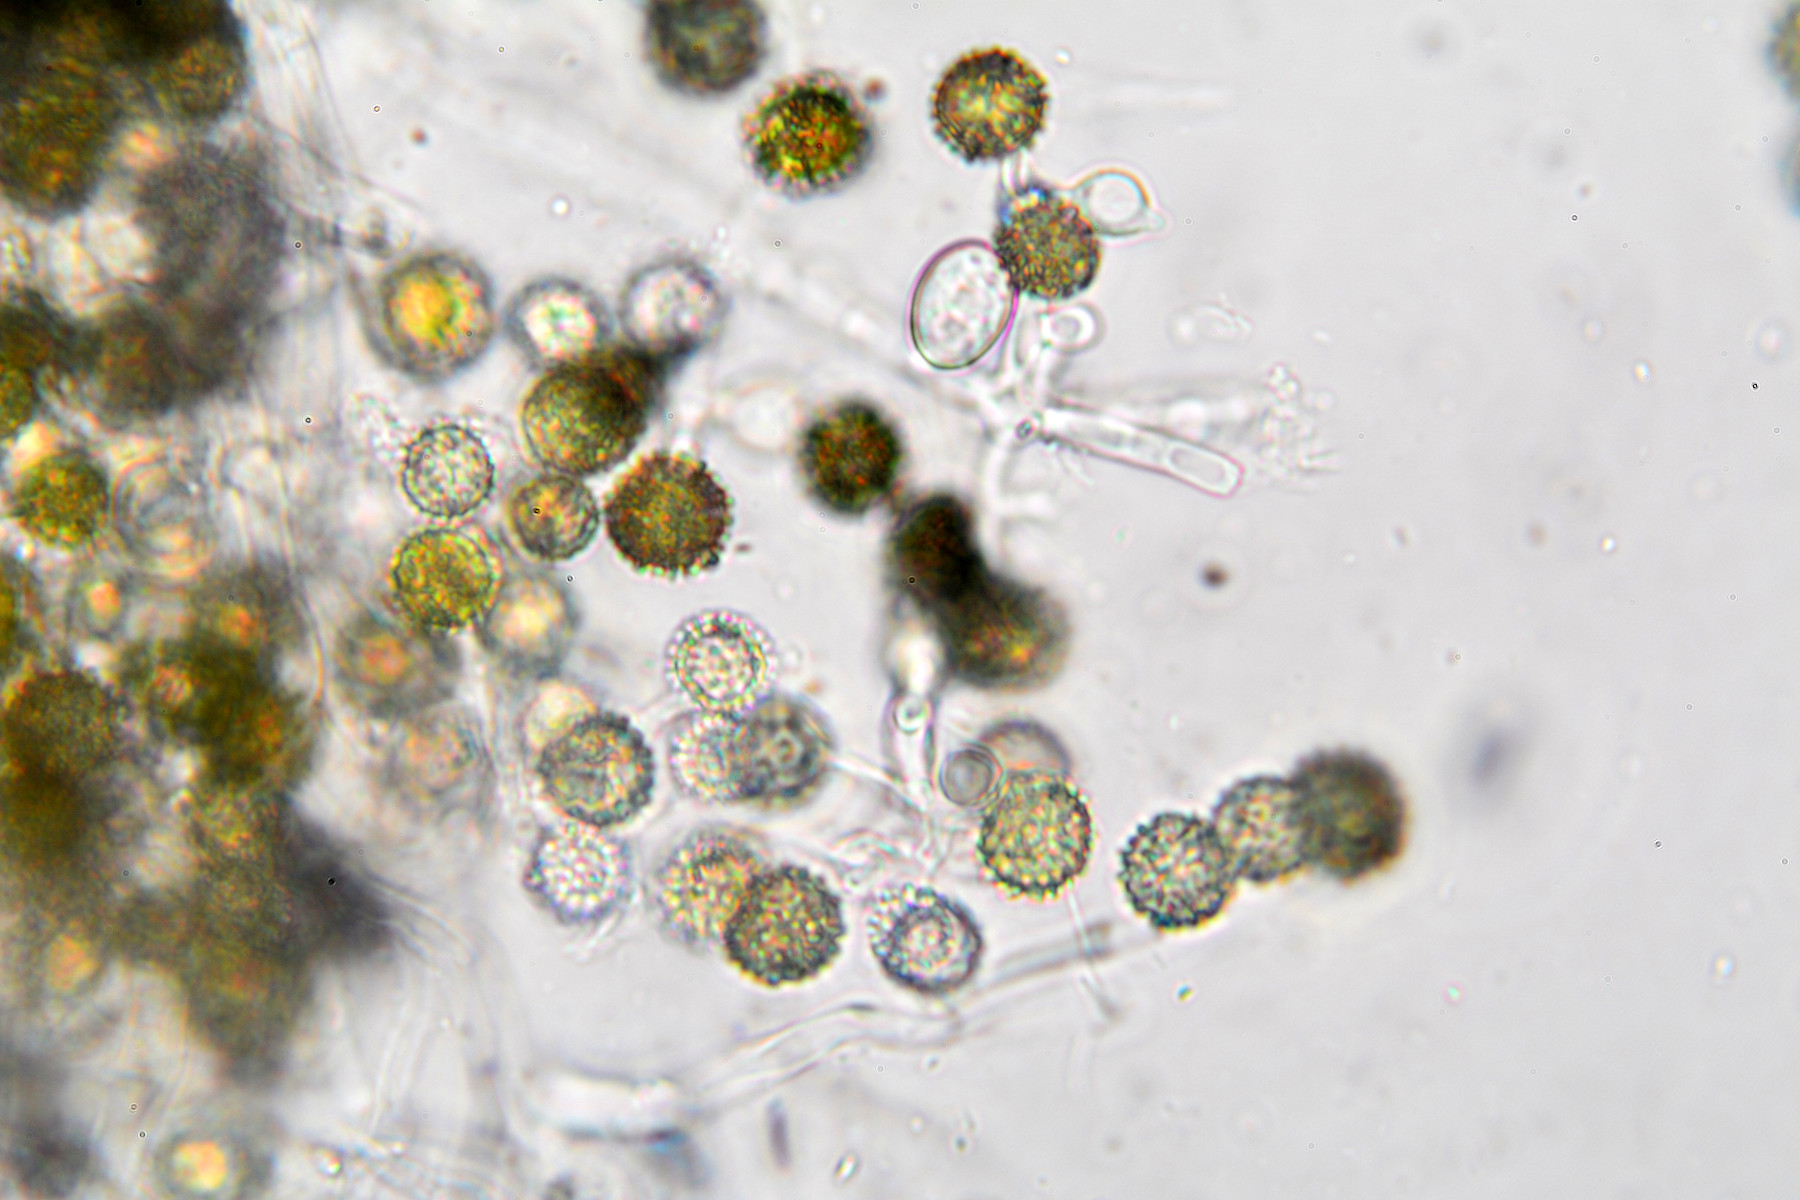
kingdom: Fungi
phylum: Ascomycota
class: Sordariomycetes
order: Hypocreales
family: Hypocreaceae
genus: Hypomyces
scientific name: Hypomyces microspermus
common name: dværgrørhat-snylteskorpe
